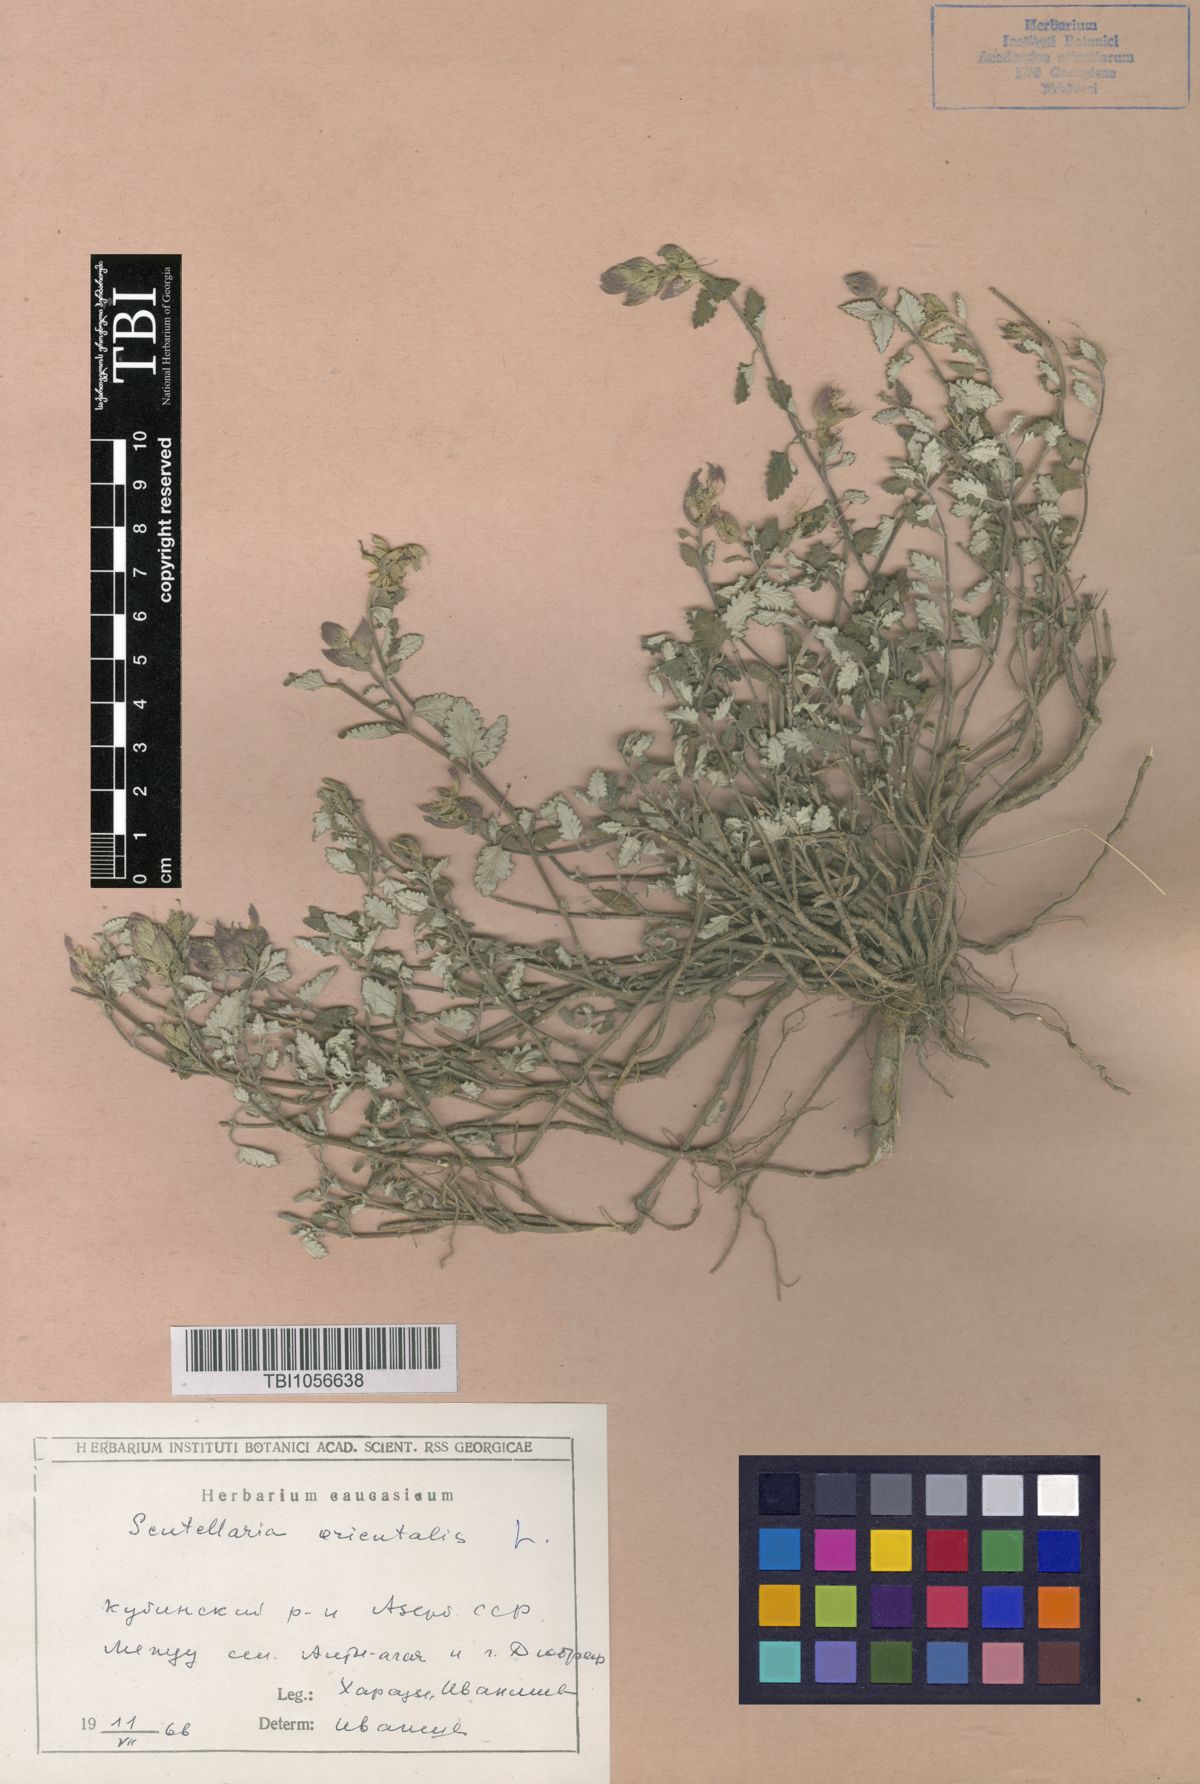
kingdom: Plantae
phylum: Tracheophyta
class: Magnoliopsida
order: Lamiales
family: Lamiaceae
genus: Scutellaria
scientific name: Scutellaria orientalis
